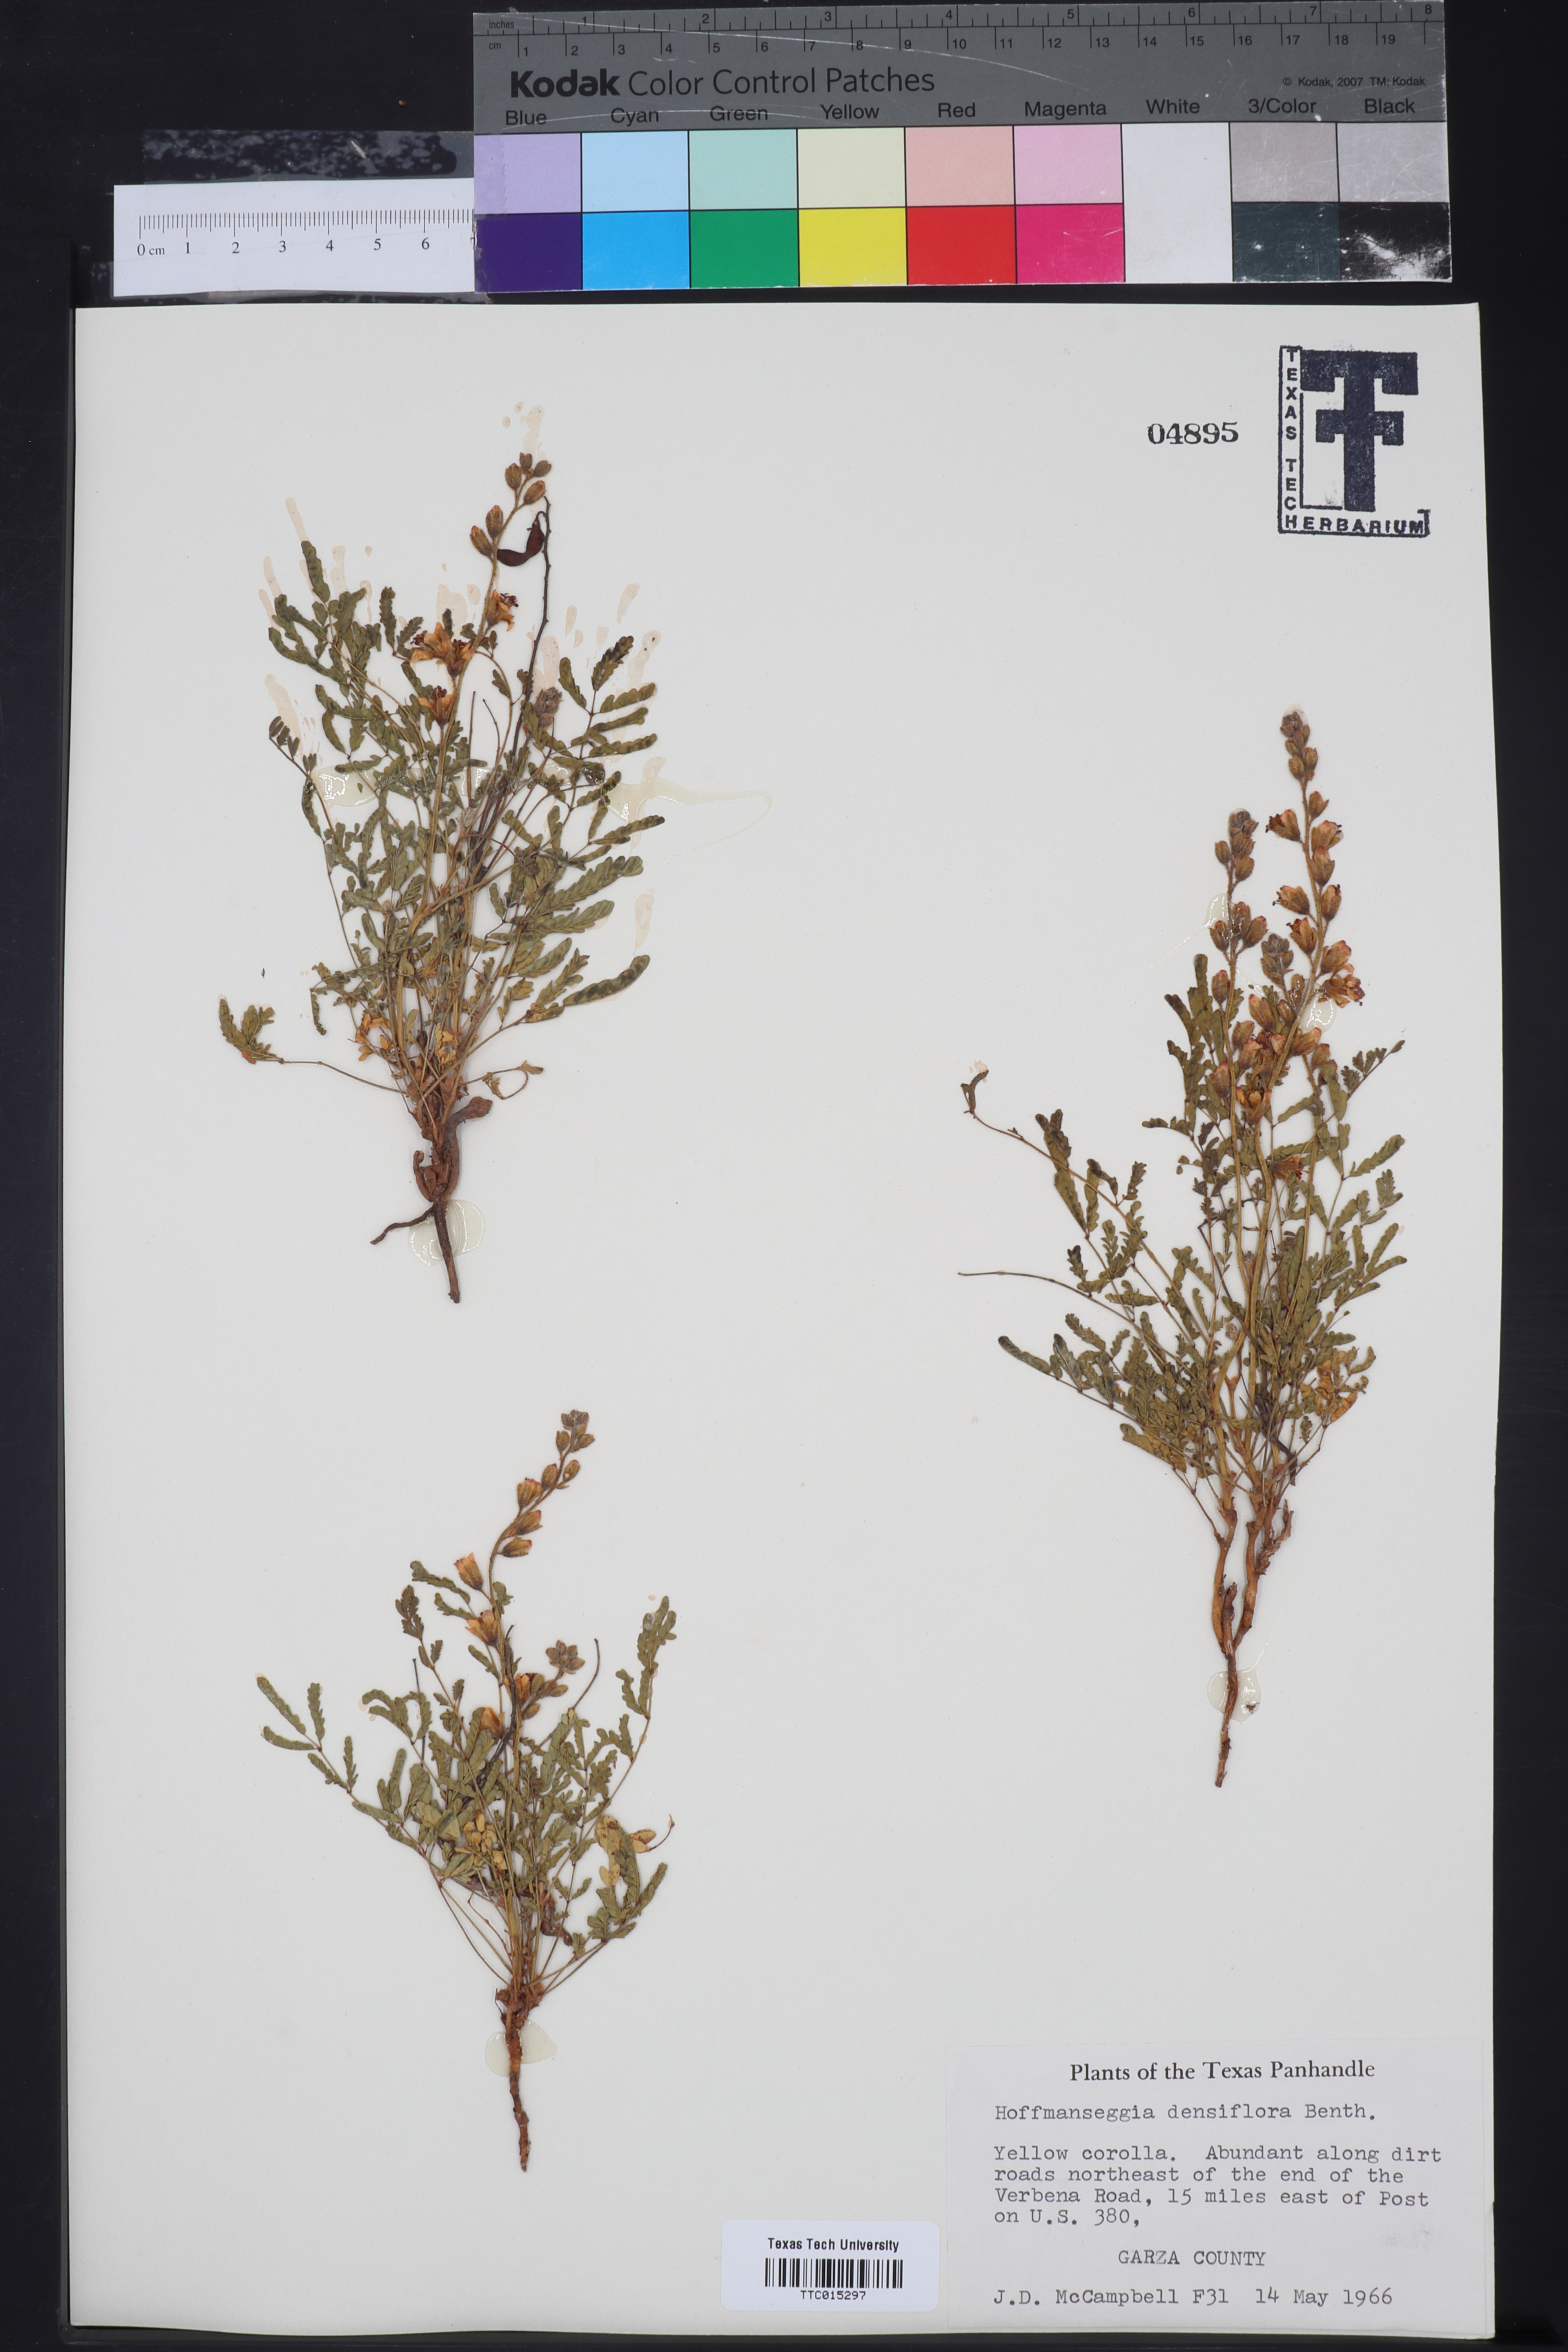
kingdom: Plantae
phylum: Tracheophyta
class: Magnoliopsida
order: Fabales
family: Fabaceae
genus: Hoffmannseggia
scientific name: Hoffmannseggia glauca
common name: Pignut
